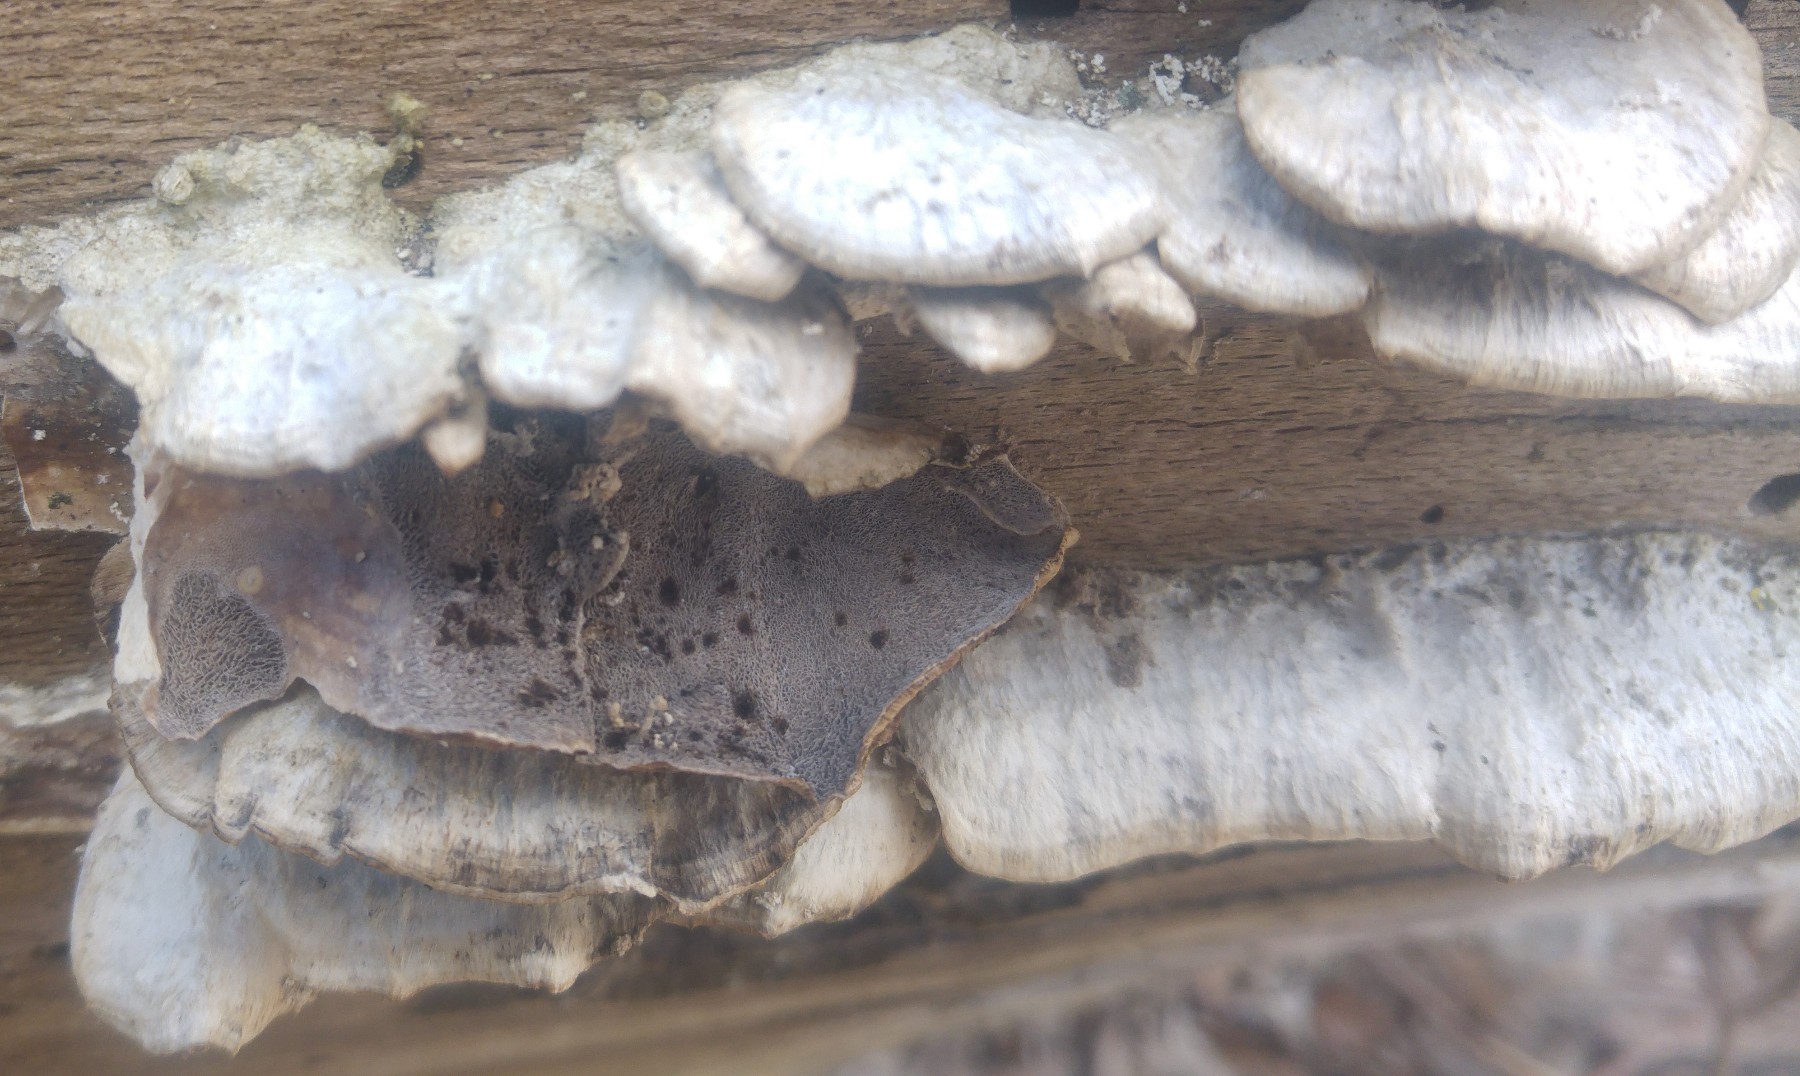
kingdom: Fungi
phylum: Basidiomycota
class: Agaricomycetes
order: Polyporales
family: Phanerochaetaceae
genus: Bjerkandera
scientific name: Bjerkandera adusta
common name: sveden sodporesvamp
